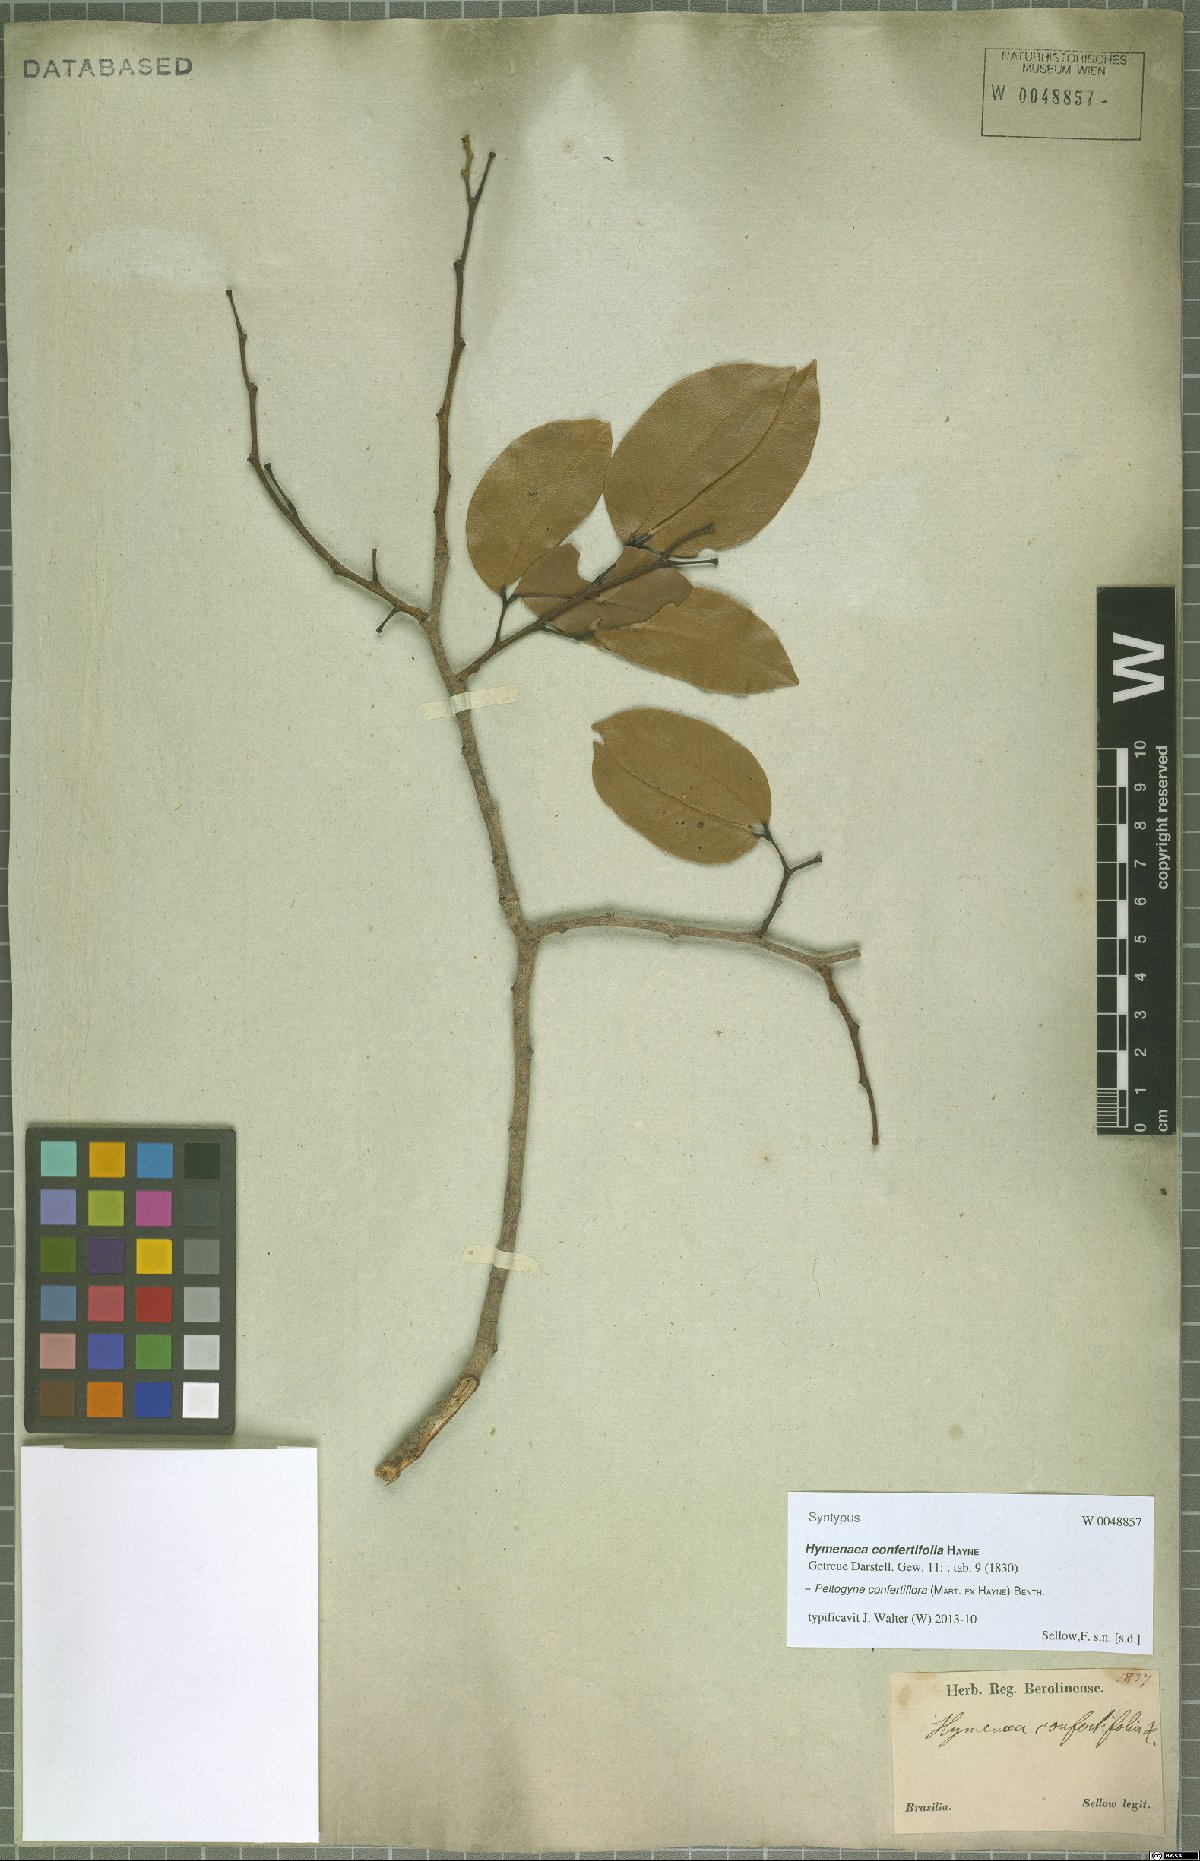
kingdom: Plantae
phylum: Tracheophyta
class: Magnoliopsida
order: Fabales
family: Fabaceae
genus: Peltogyne
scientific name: Peltogyne confertiflora
